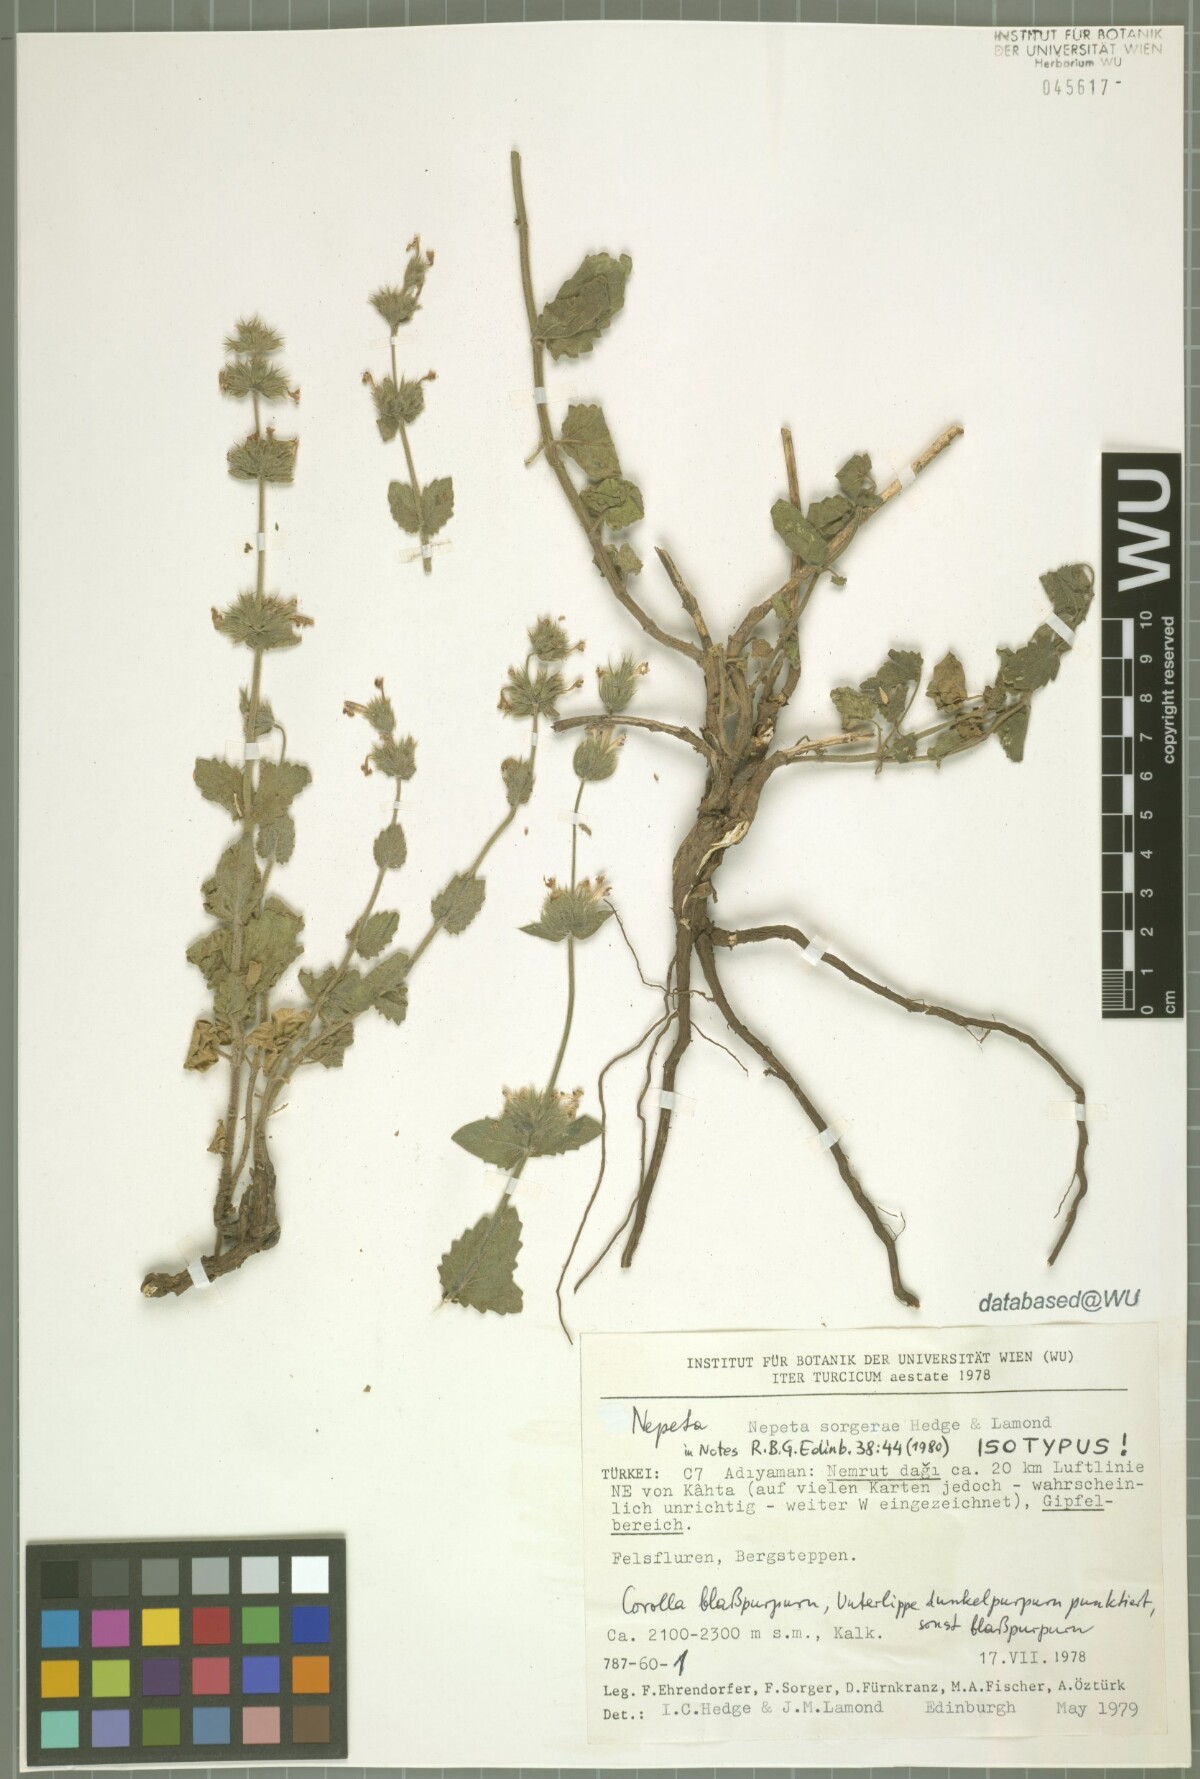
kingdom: Plantae
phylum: Tracheophyta
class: Magnoliopsida
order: Lamiales
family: Lamiaceae
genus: Nepeta
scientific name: Nepeta sorgerae
